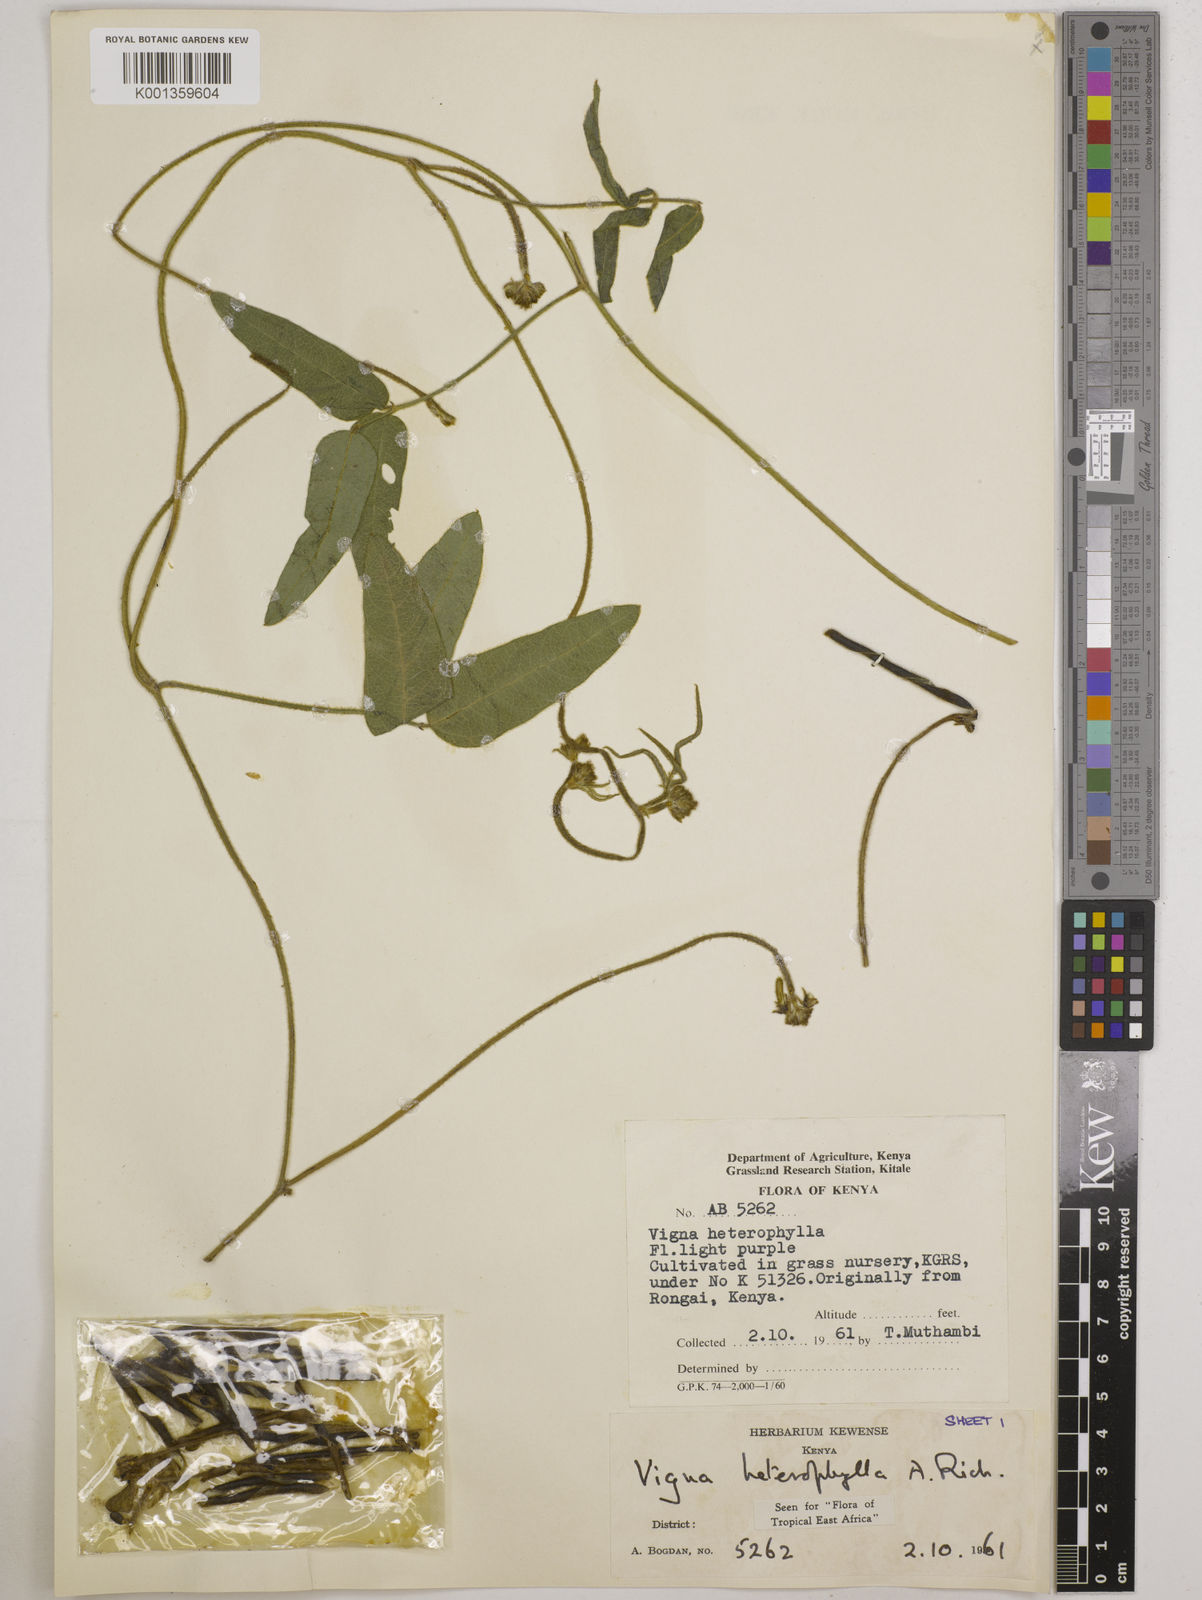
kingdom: Plantae
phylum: Tracheophyta
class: Magnoliopsida
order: Fabales
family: Fabaceae
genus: Vigna
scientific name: Vigna heterophylla
